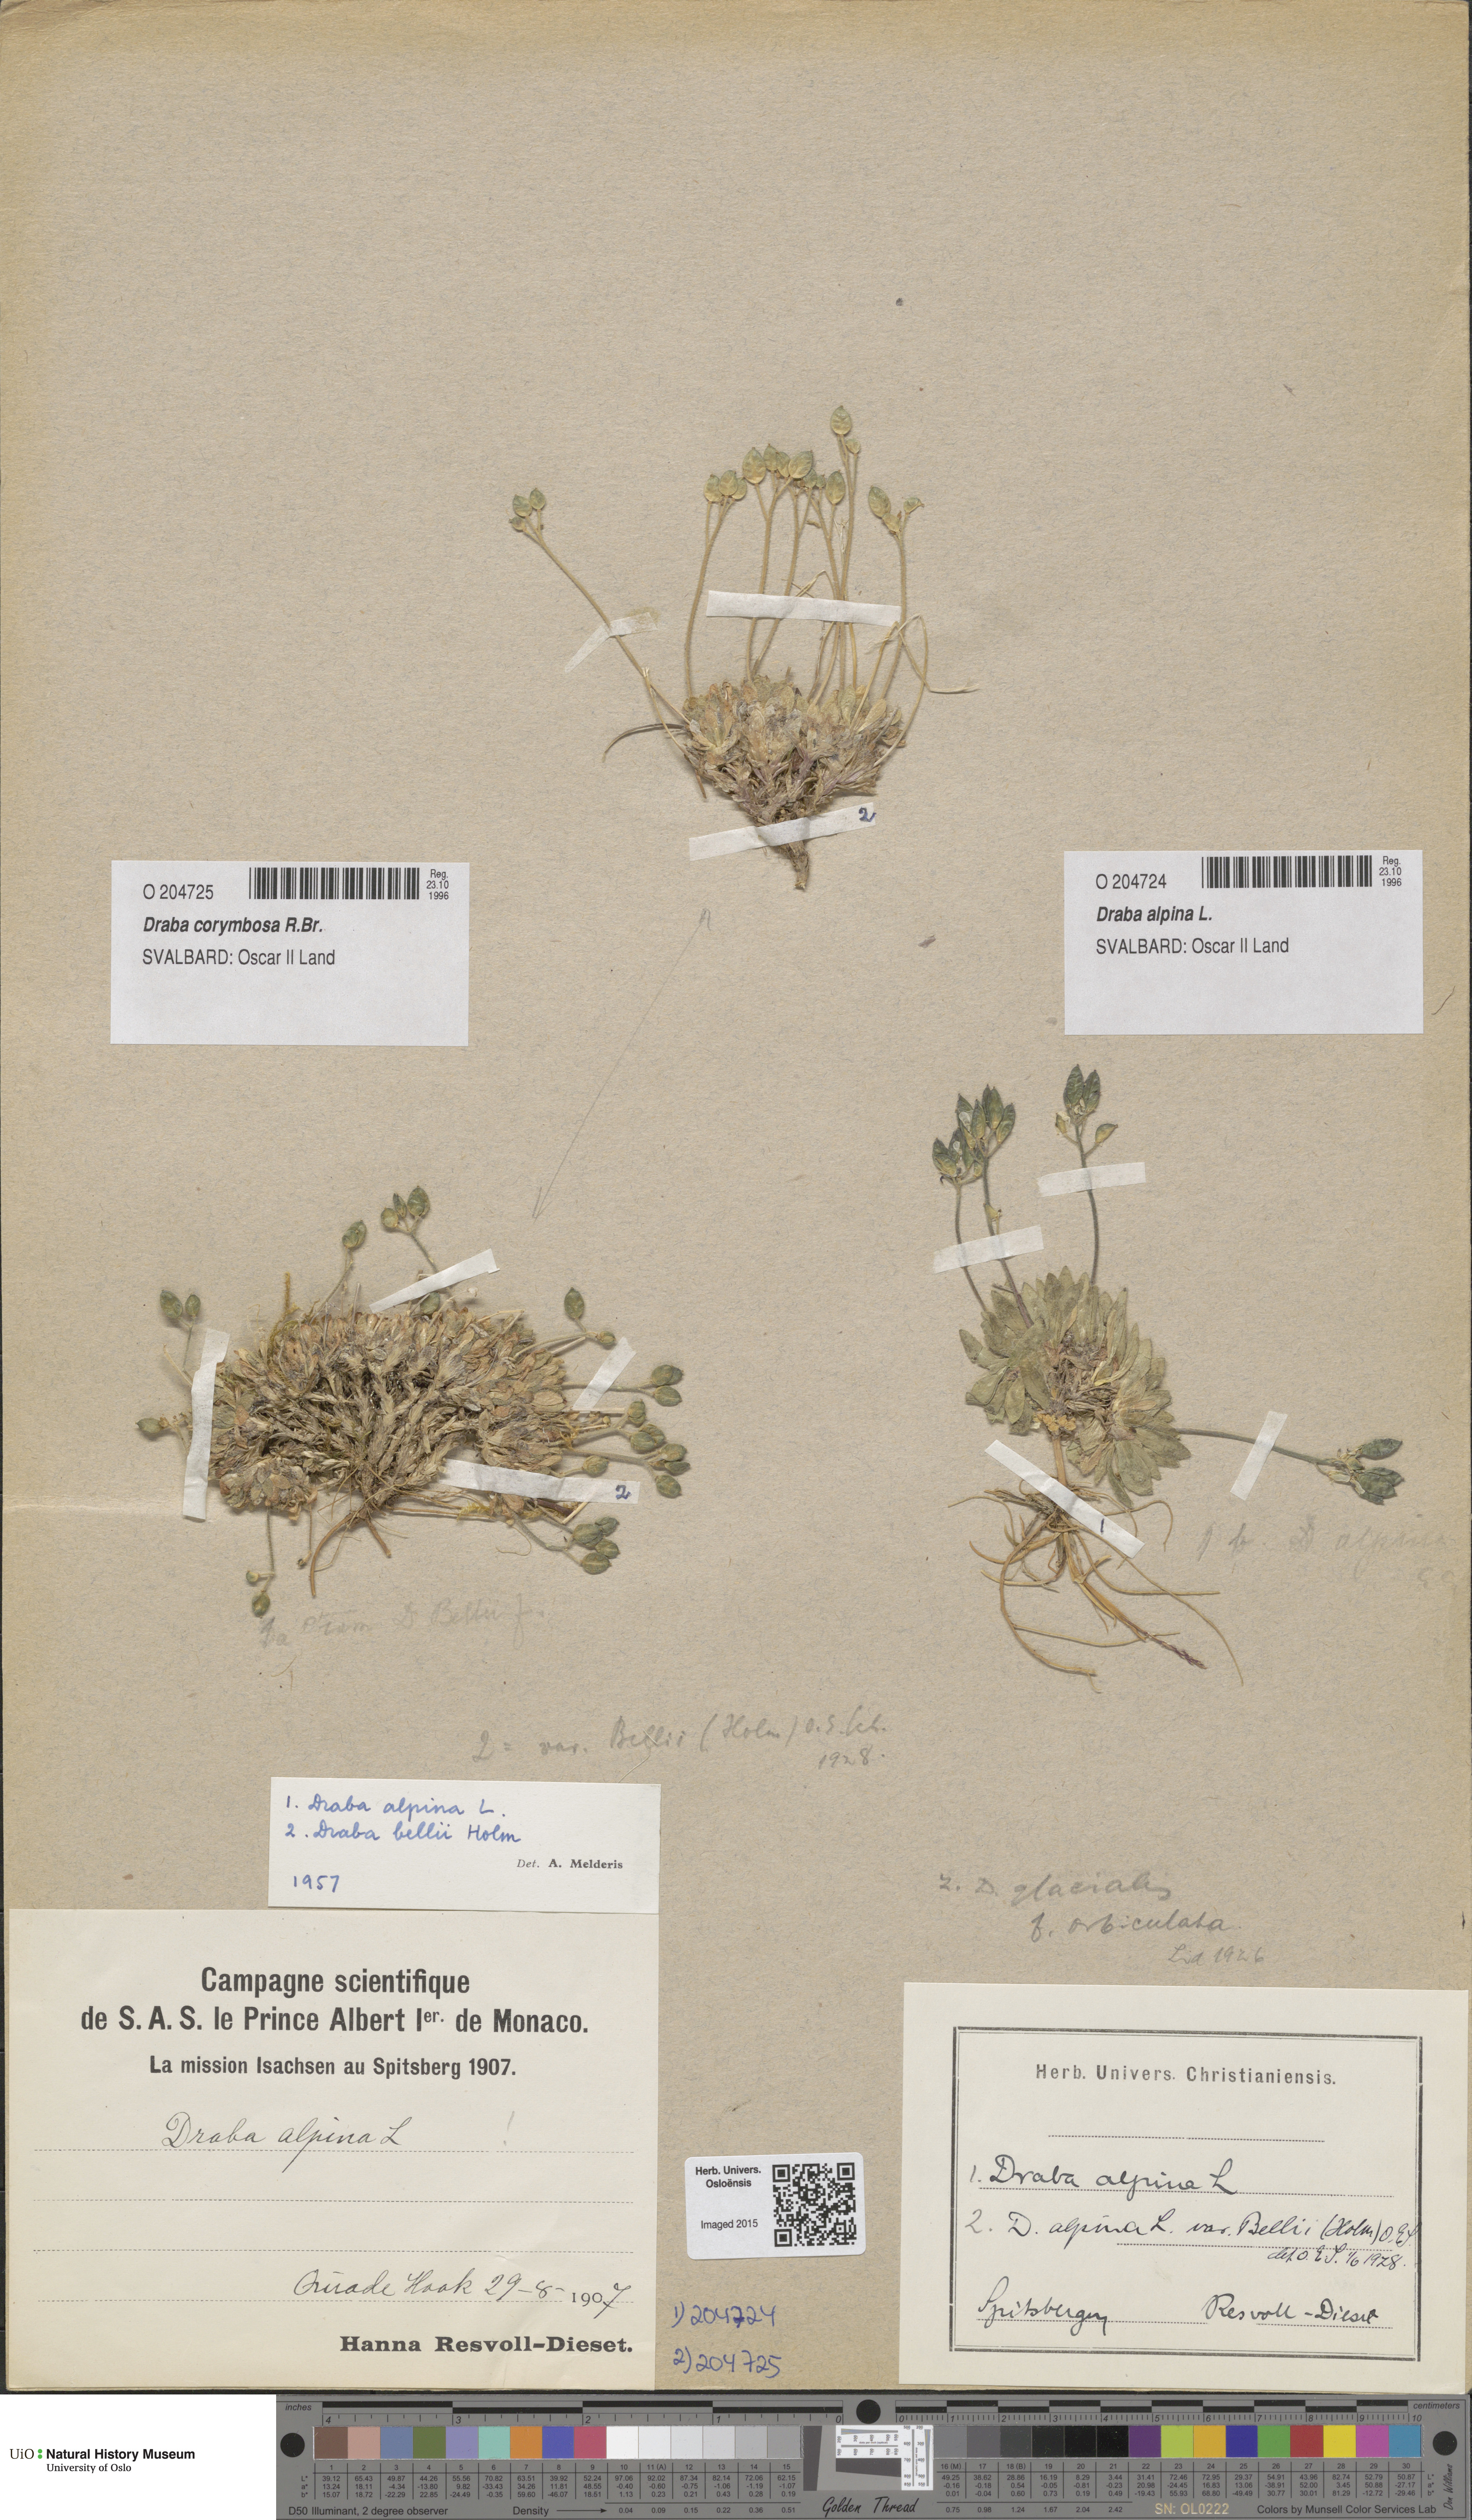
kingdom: Plantae
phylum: Tracheophyta
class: Magnoliopsida
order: Brassicales
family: Brassicaceae
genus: Draba
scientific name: Draba alpina
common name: Alpine draba
